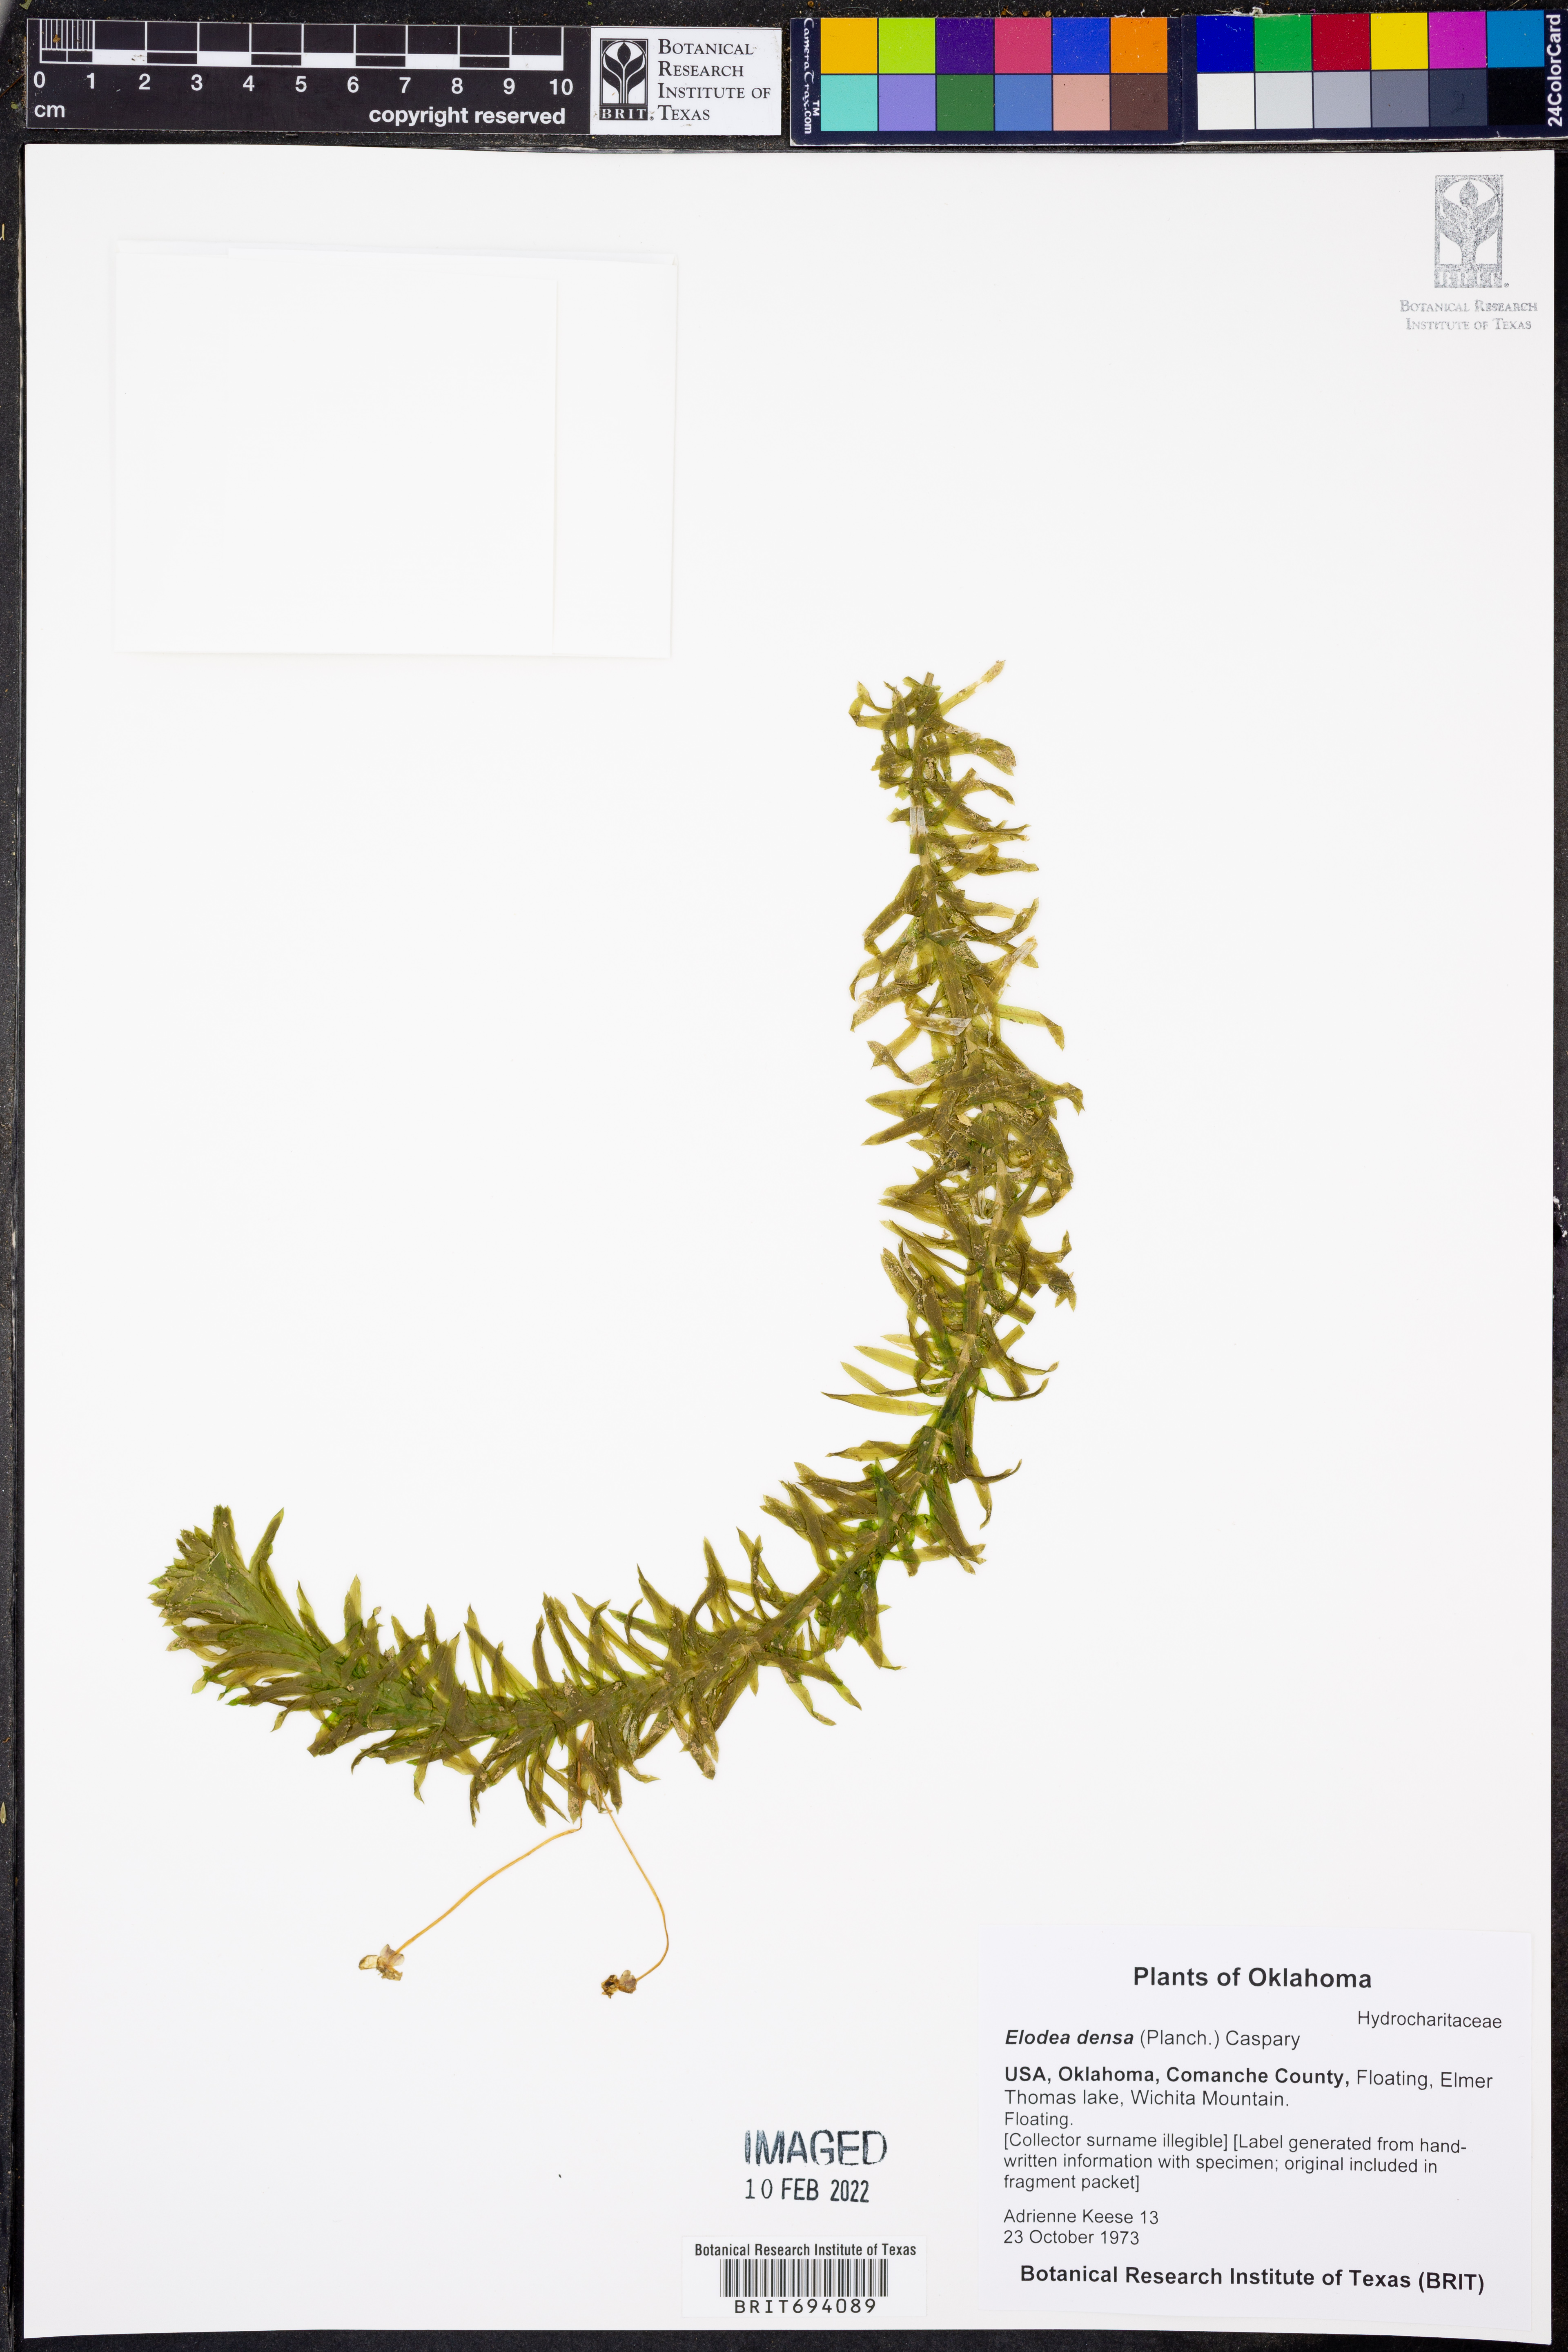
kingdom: Plantae
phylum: Tracheophyta
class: Liliopsida
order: Alismatales
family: Hydrocharitaceae
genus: Elodea
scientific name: Elodea densa
